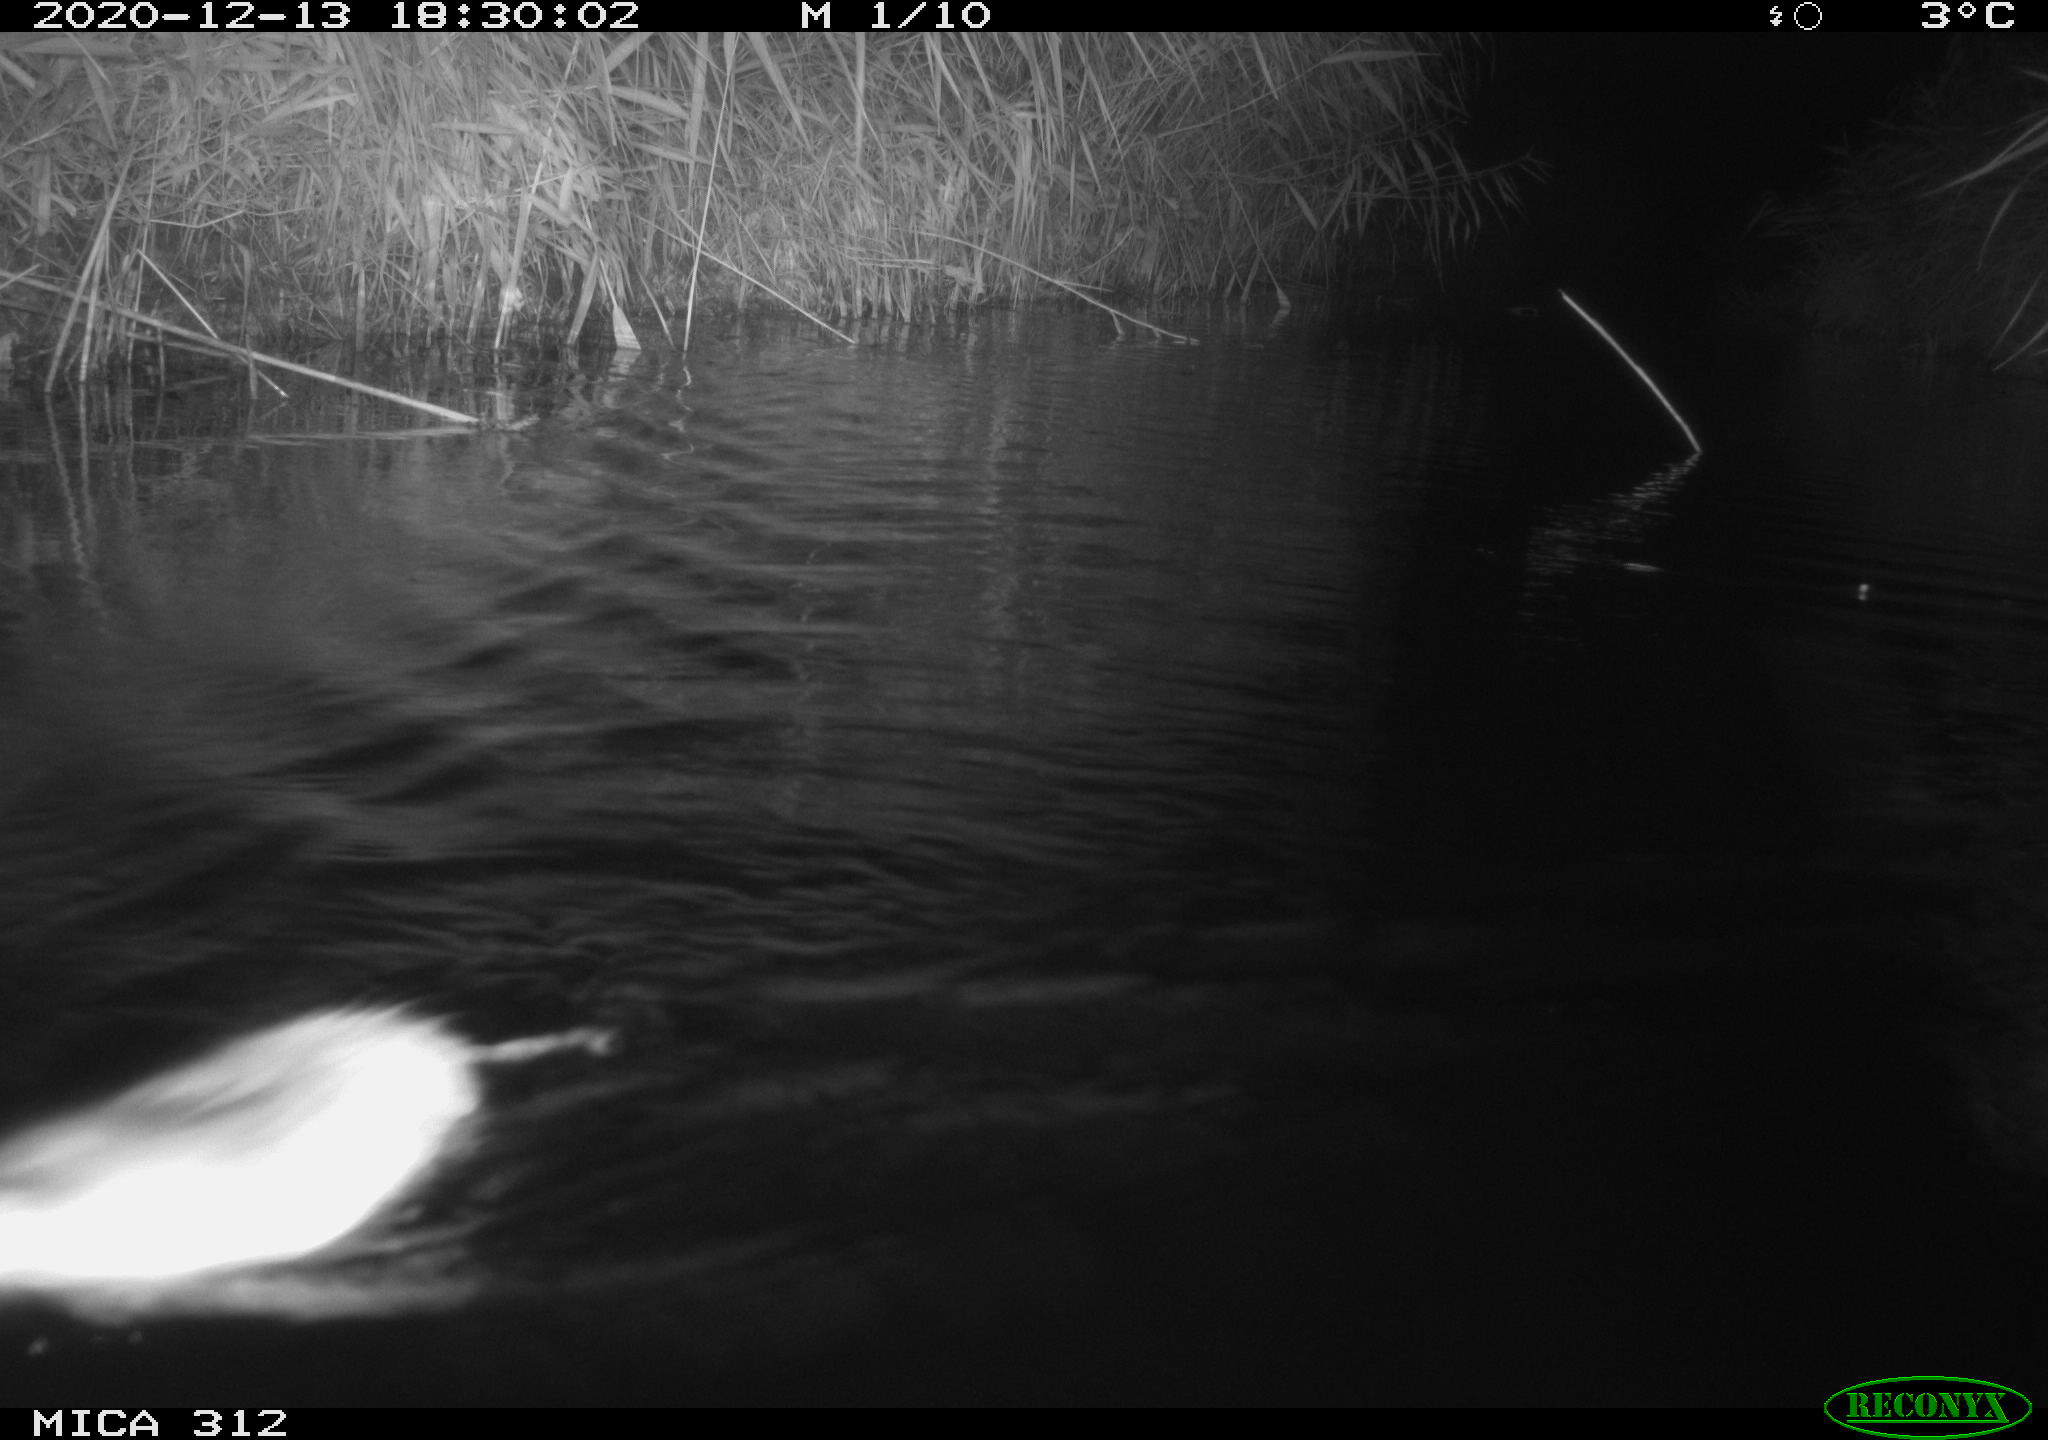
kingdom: Animalia
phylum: Chordata
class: Mammalia
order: Rodentia
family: Muridae
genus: Rattus
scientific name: Rattus norvegicus
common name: Brown rat
